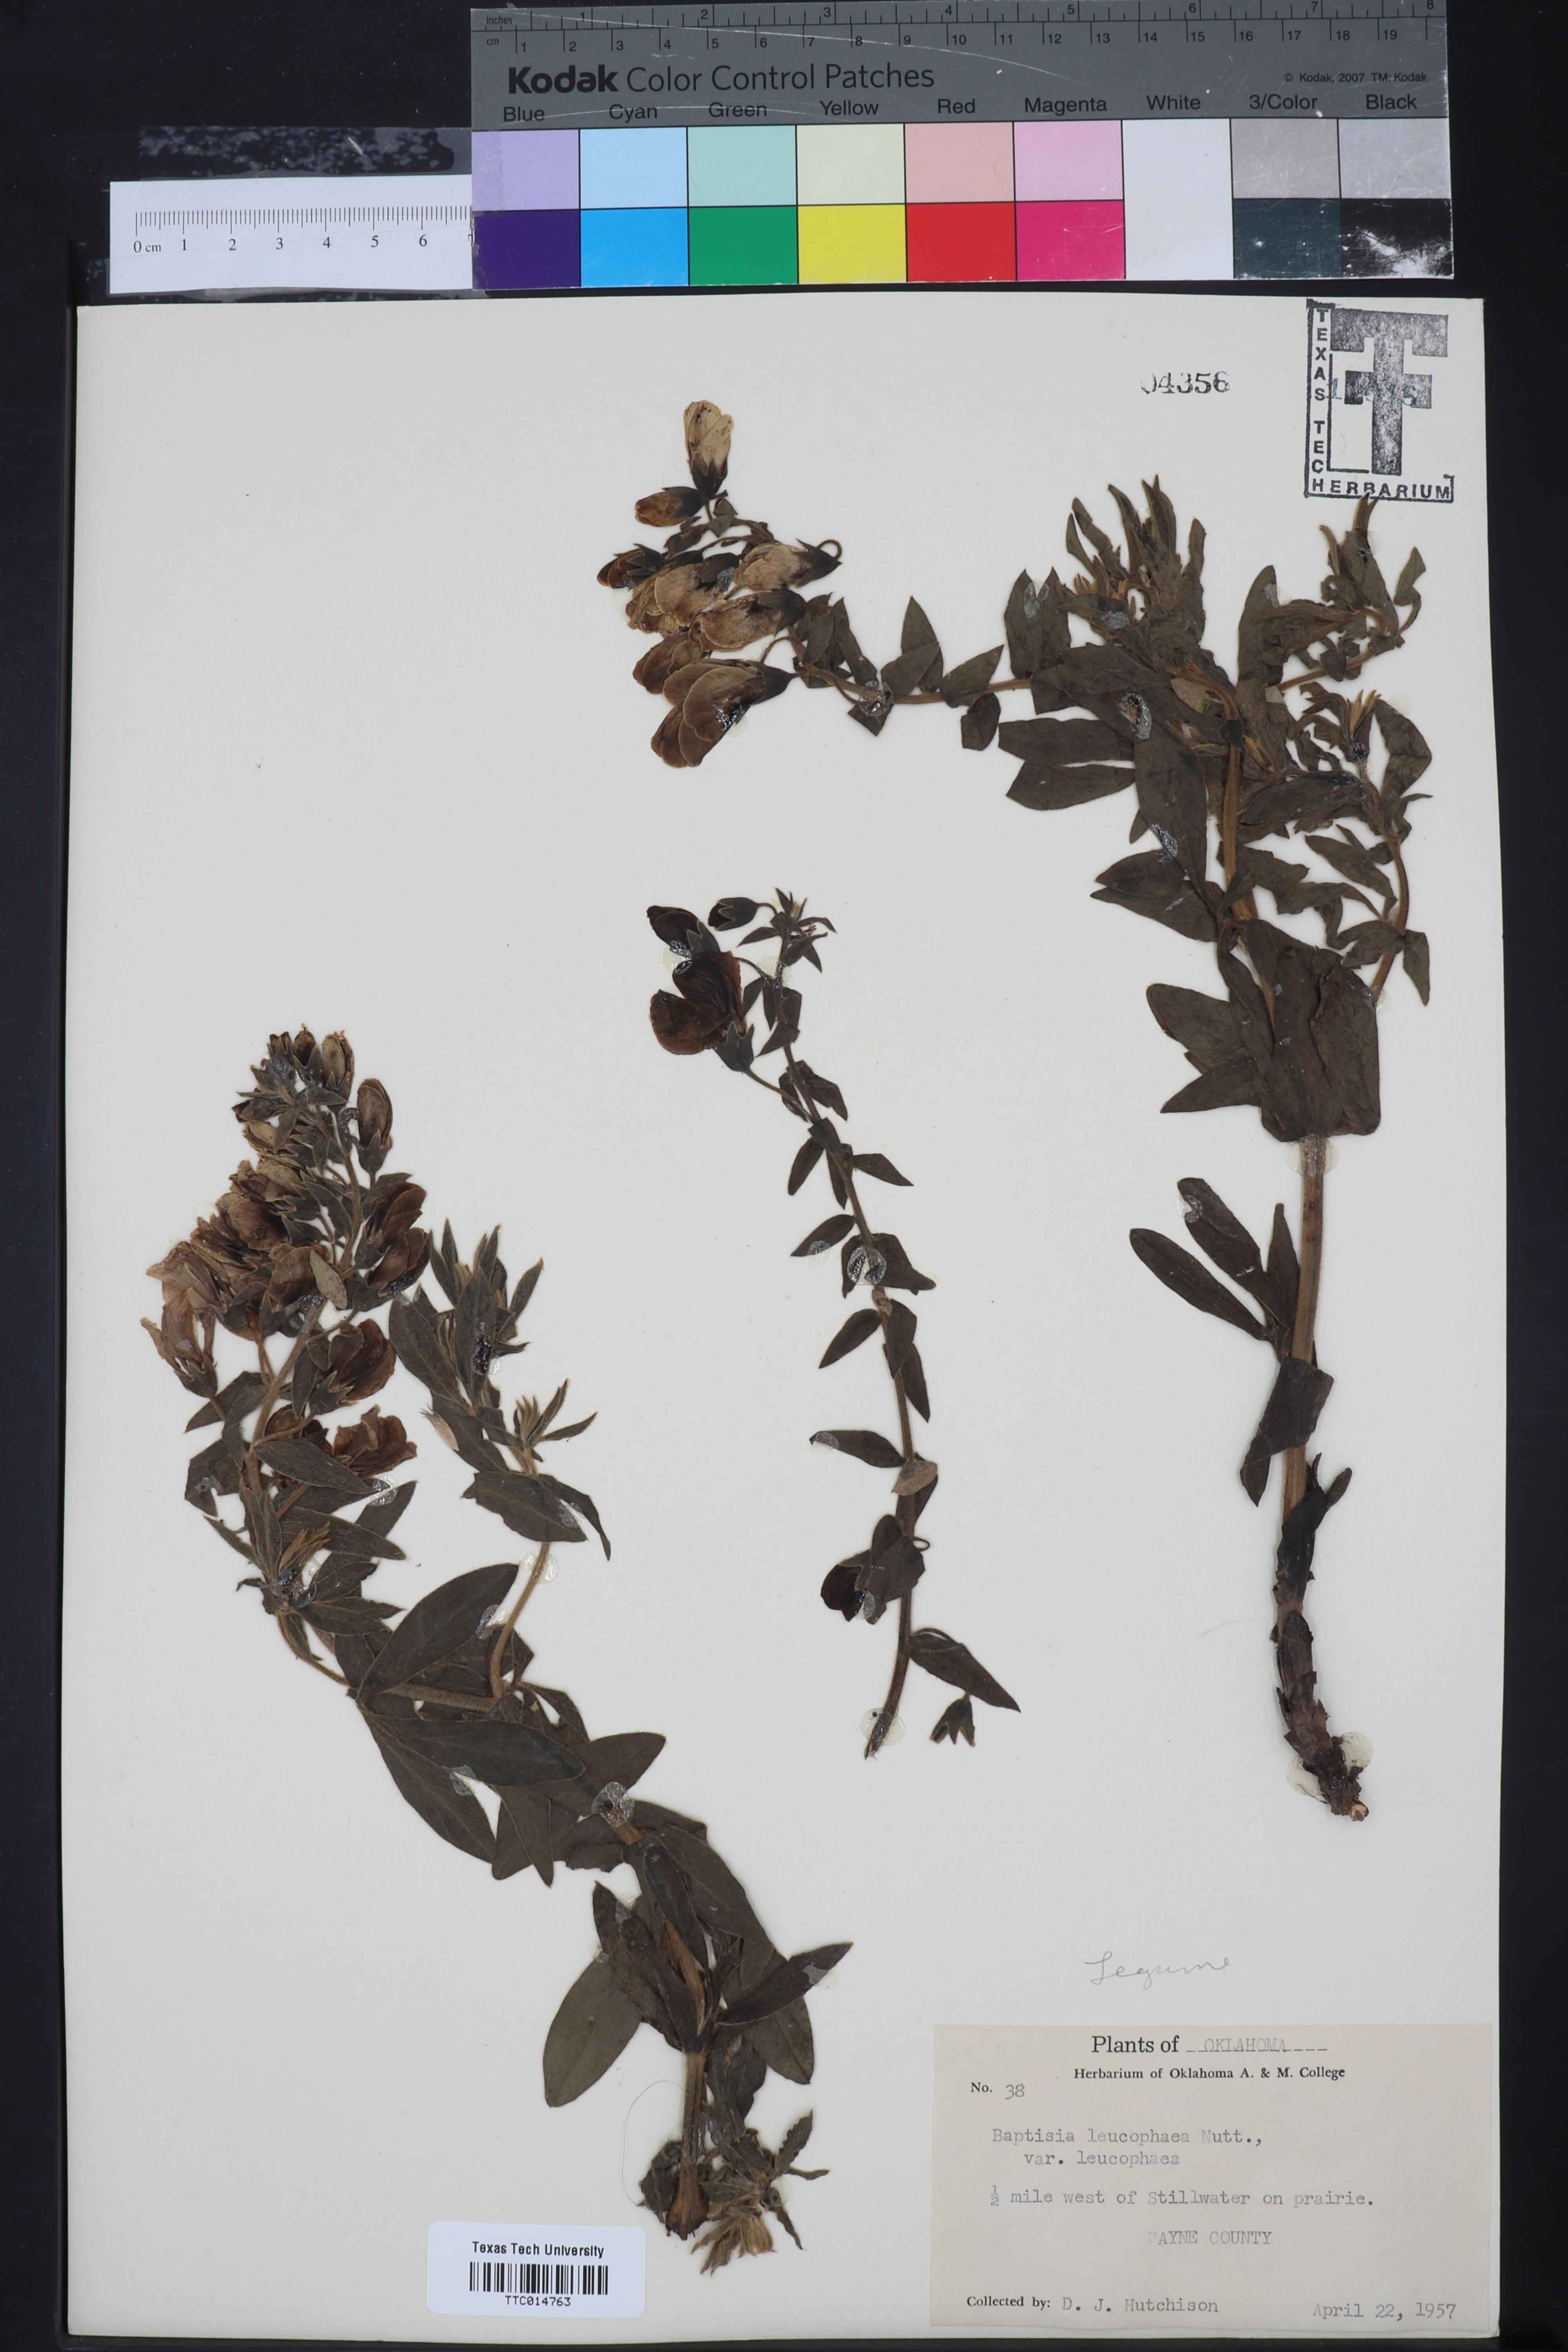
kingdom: Plantae
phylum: Tracheophyta
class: Magnoliopsida
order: Fabales
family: Fabaceae
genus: Baptisia
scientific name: Baptisia bracteata
